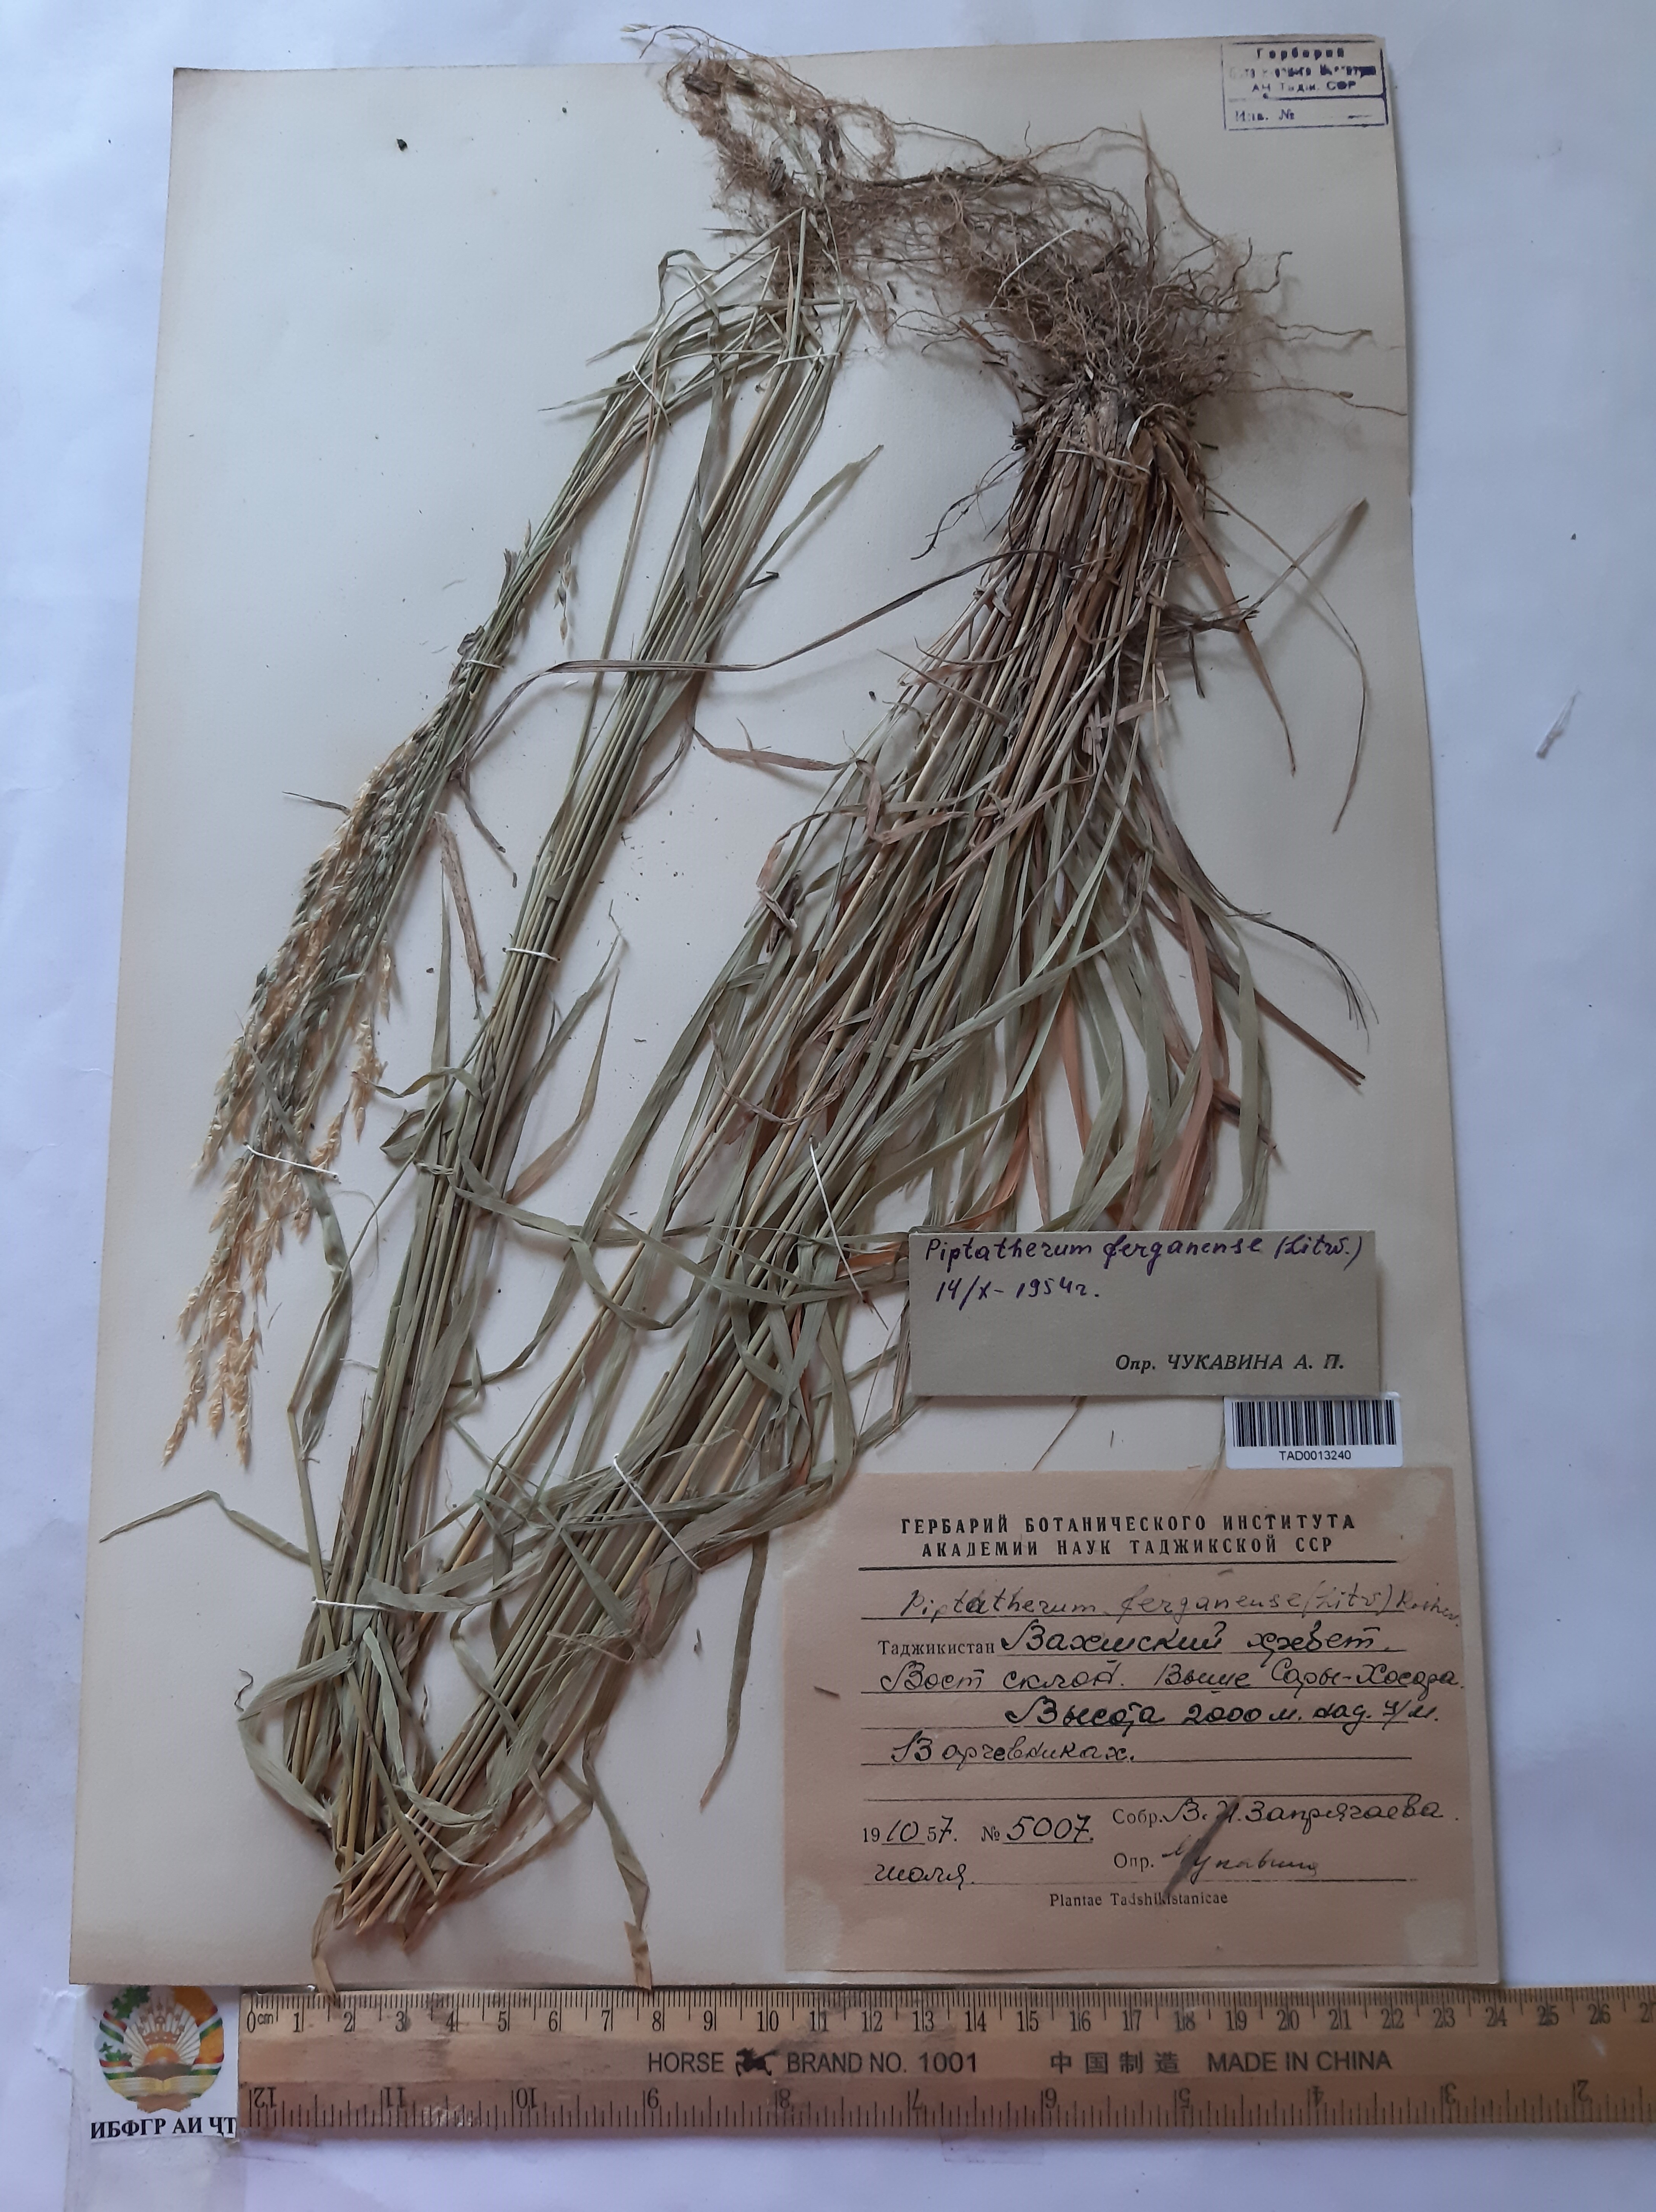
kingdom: Plantae
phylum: Tracheophyta
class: Liliopsida
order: Poales
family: Poaceae
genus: Piptatherum
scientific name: Piptatherum ferganense
